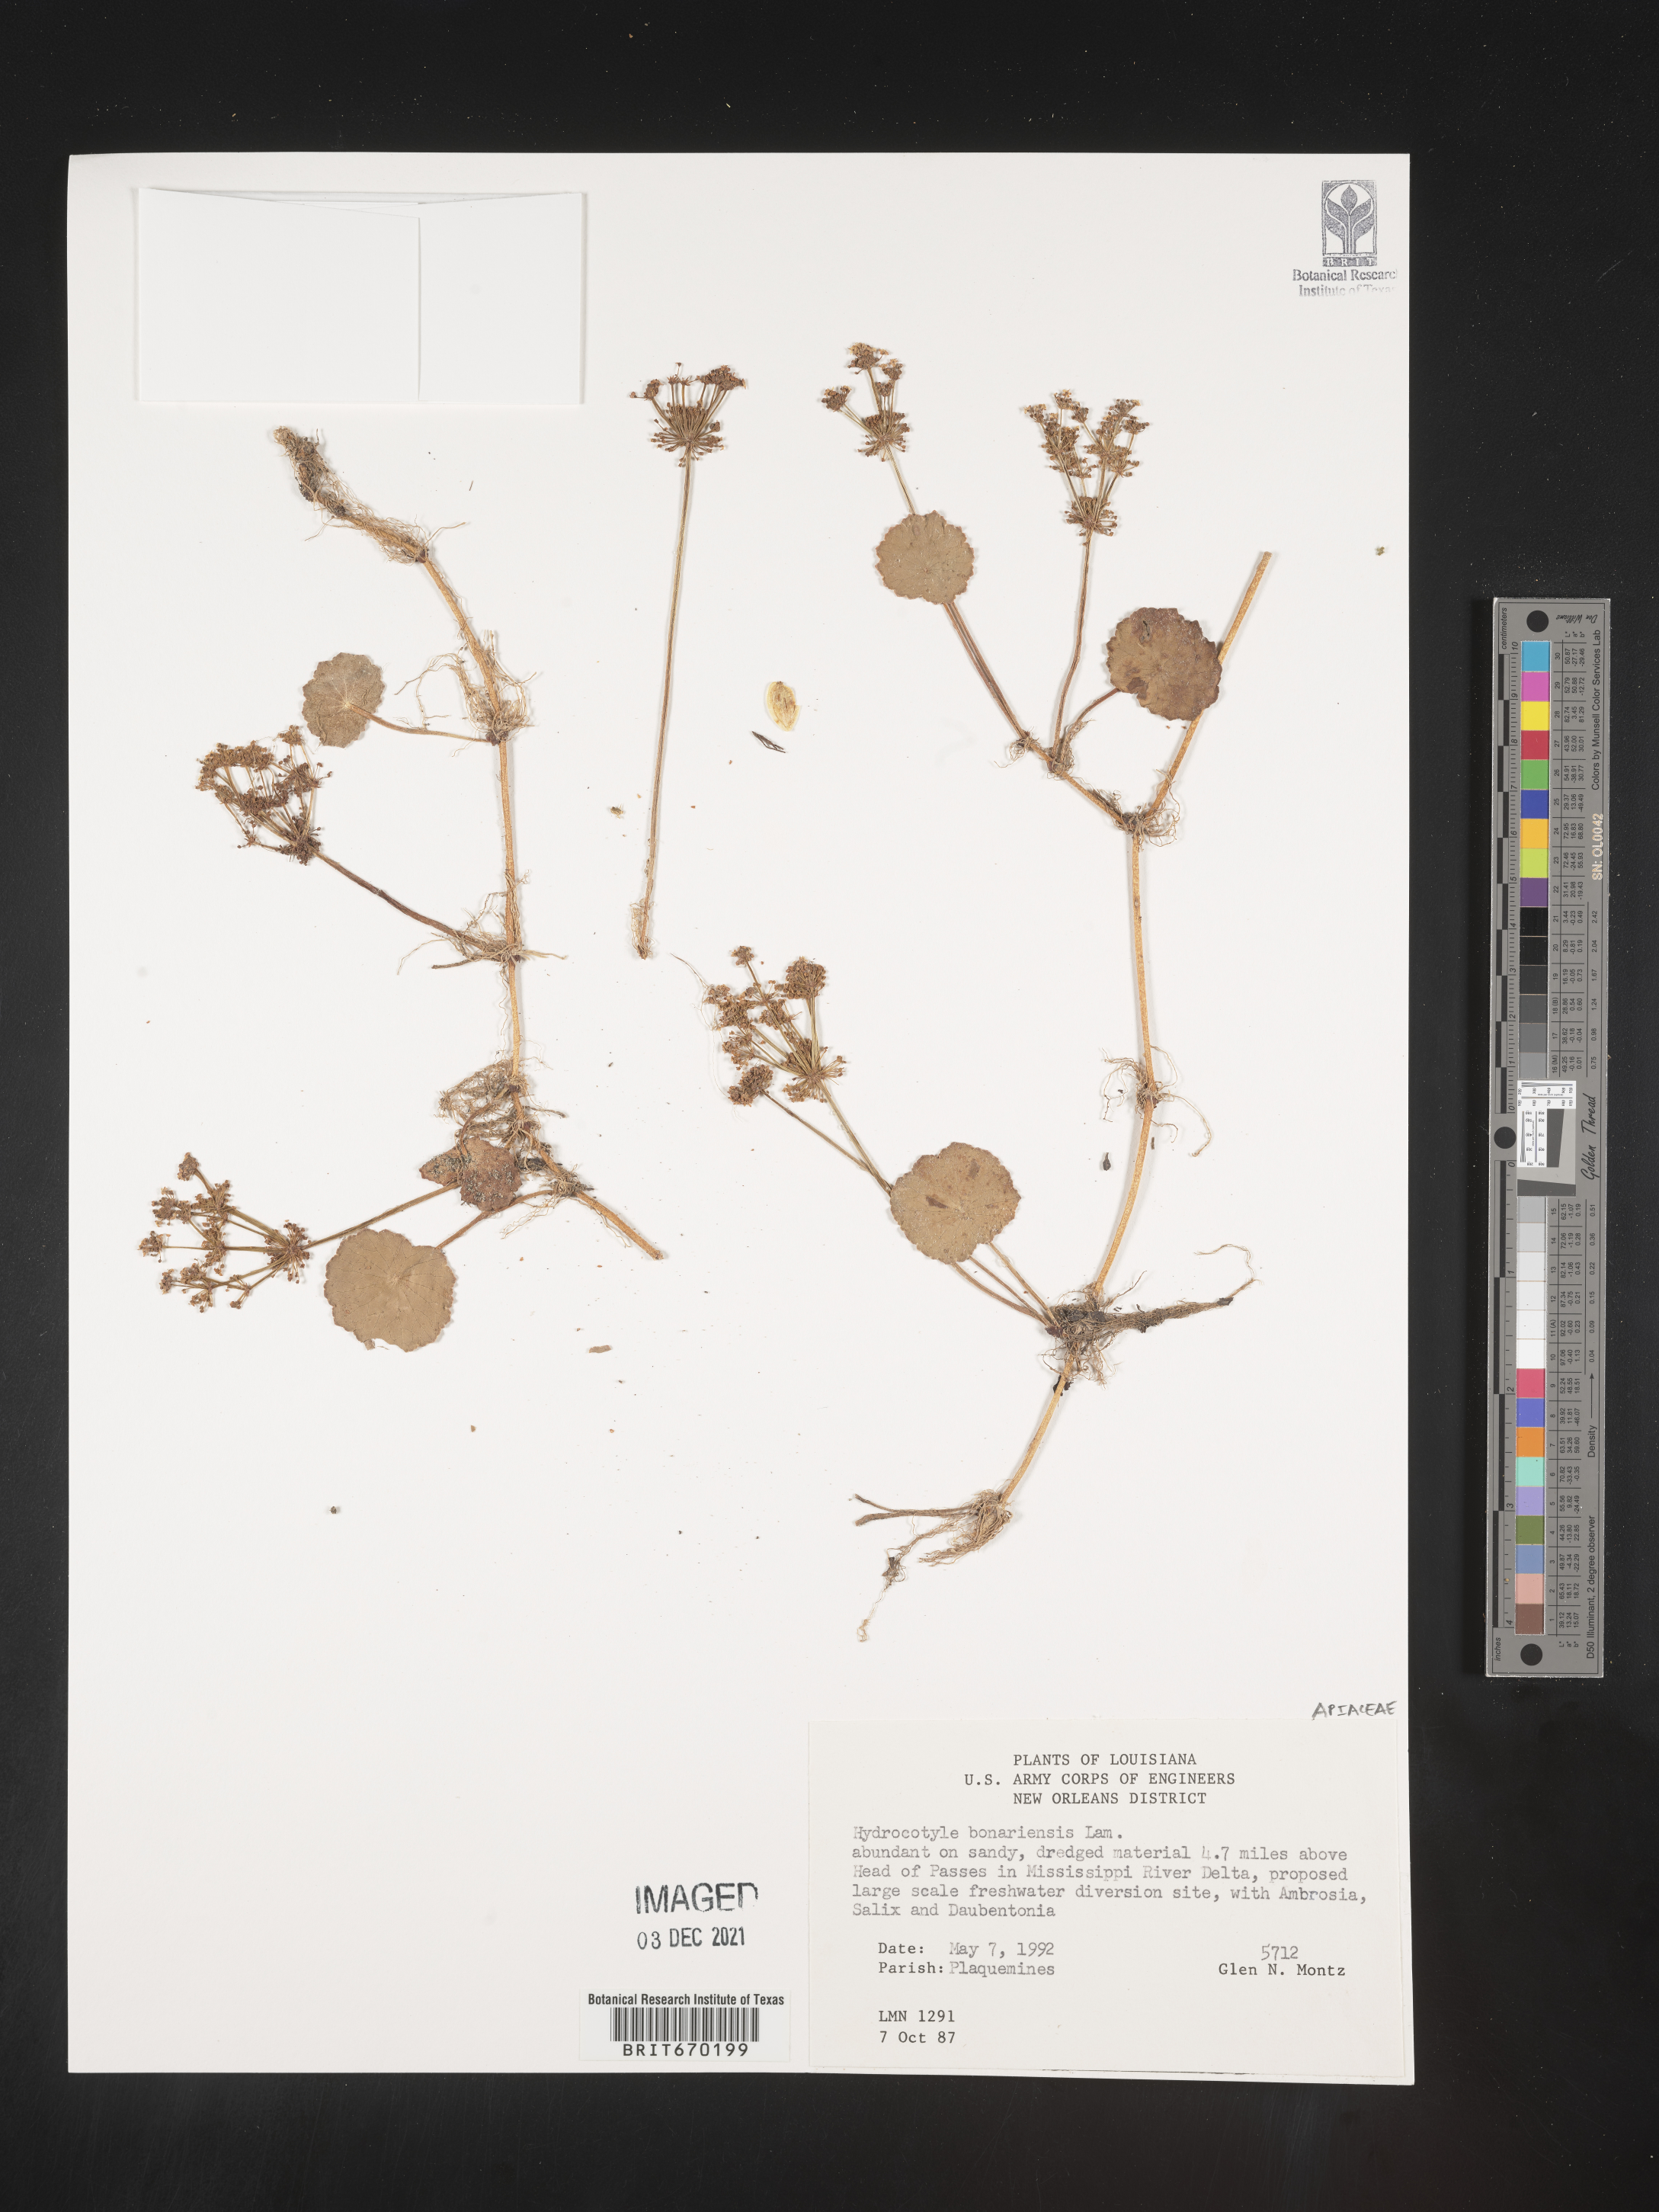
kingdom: Plantae
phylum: Tracheophyta
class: Magnoliopsida
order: Apiales
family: Araliaceae
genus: Hydrocotyle
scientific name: Hydrocotyle bonariensis
